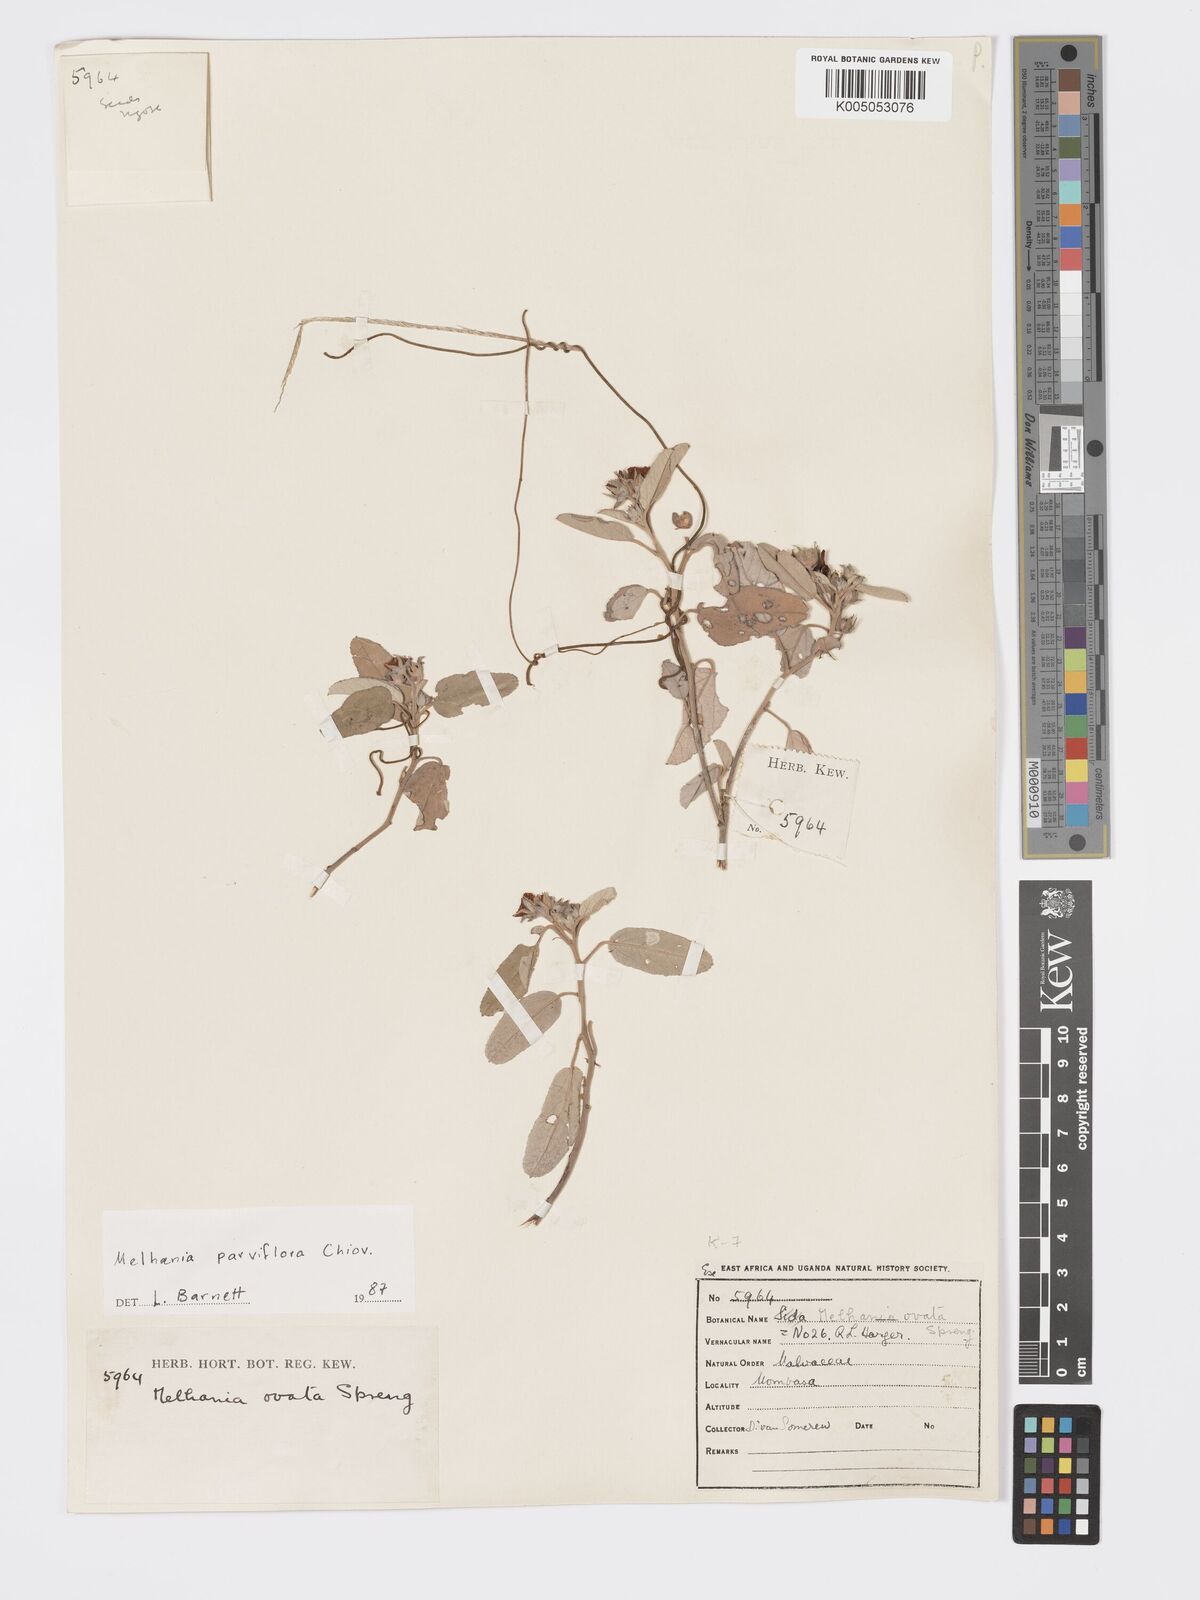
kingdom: Plantae
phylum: Tracheophyta
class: Magnoliopsida
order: Malvales
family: Malvaceae
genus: Melhania
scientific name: Melhania parviflora
